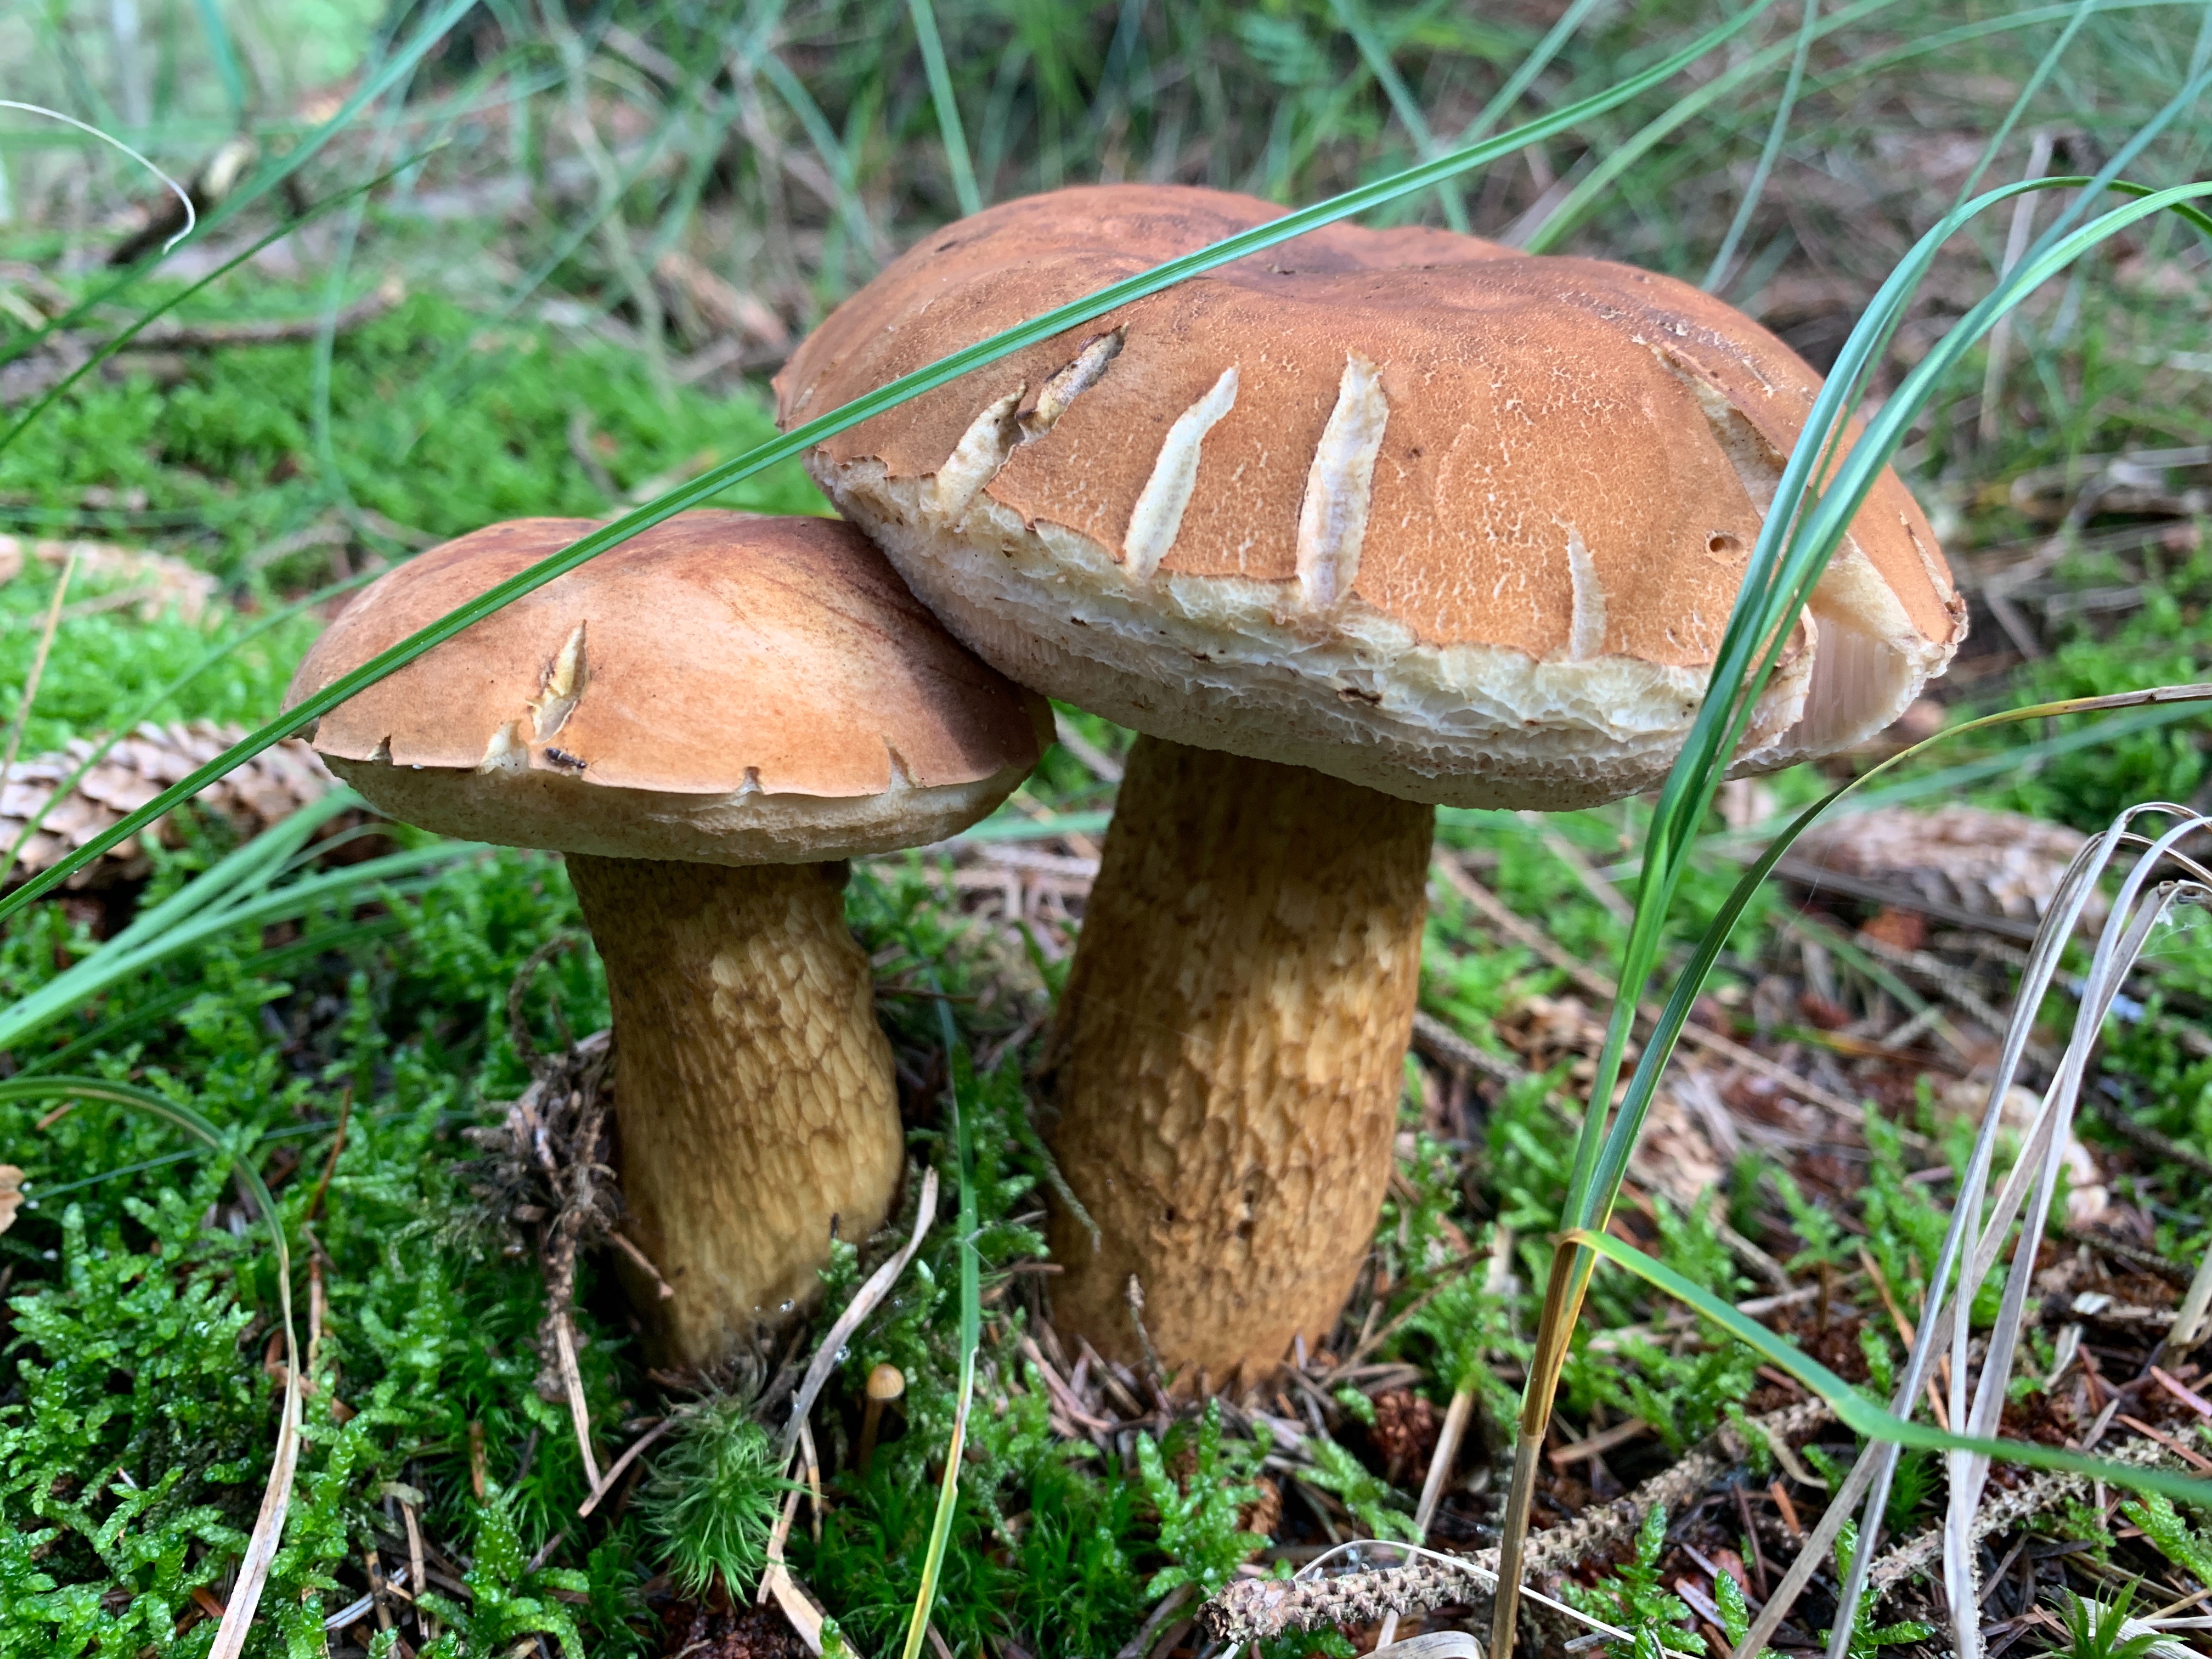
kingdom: Fungi
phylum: Basidiomycota
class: Agaricomycetes
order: Boletales
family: Boletaceae
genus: Tylopilus
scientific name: Tylopilus felleus
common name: galderørhat
